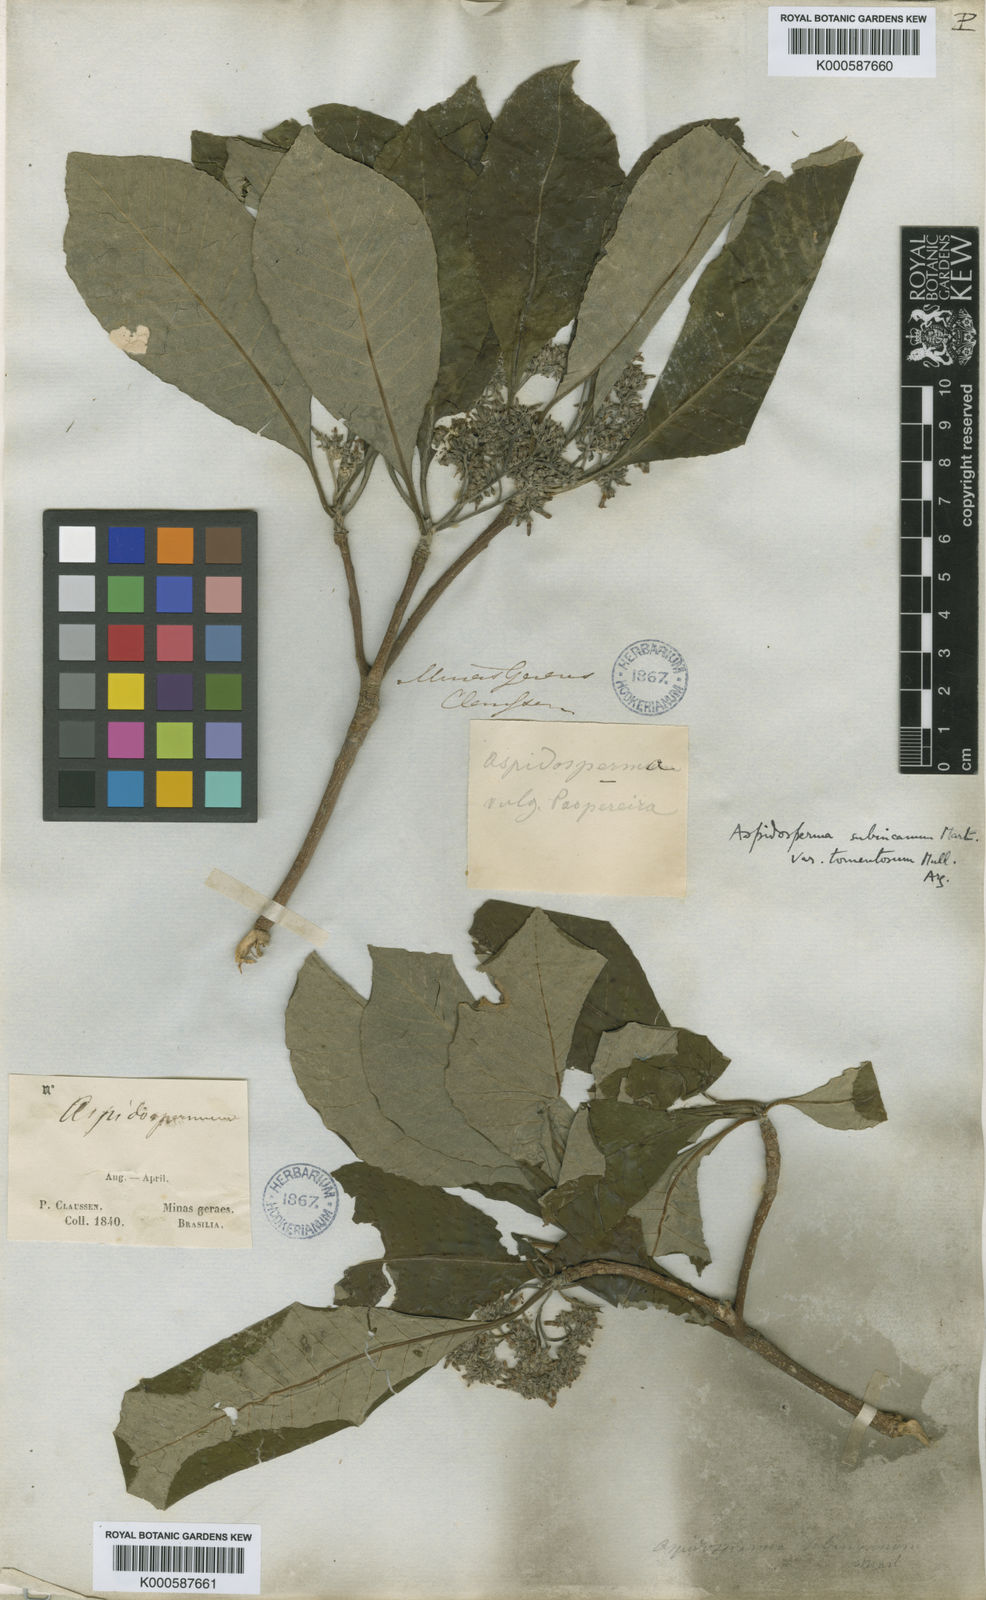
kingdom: Plantae
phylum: Tracheophyta
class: Magnoliopsida
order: Gentianales
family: Apocynaceae
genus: Aspidosperma
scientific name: Aspidosperma subincanum
